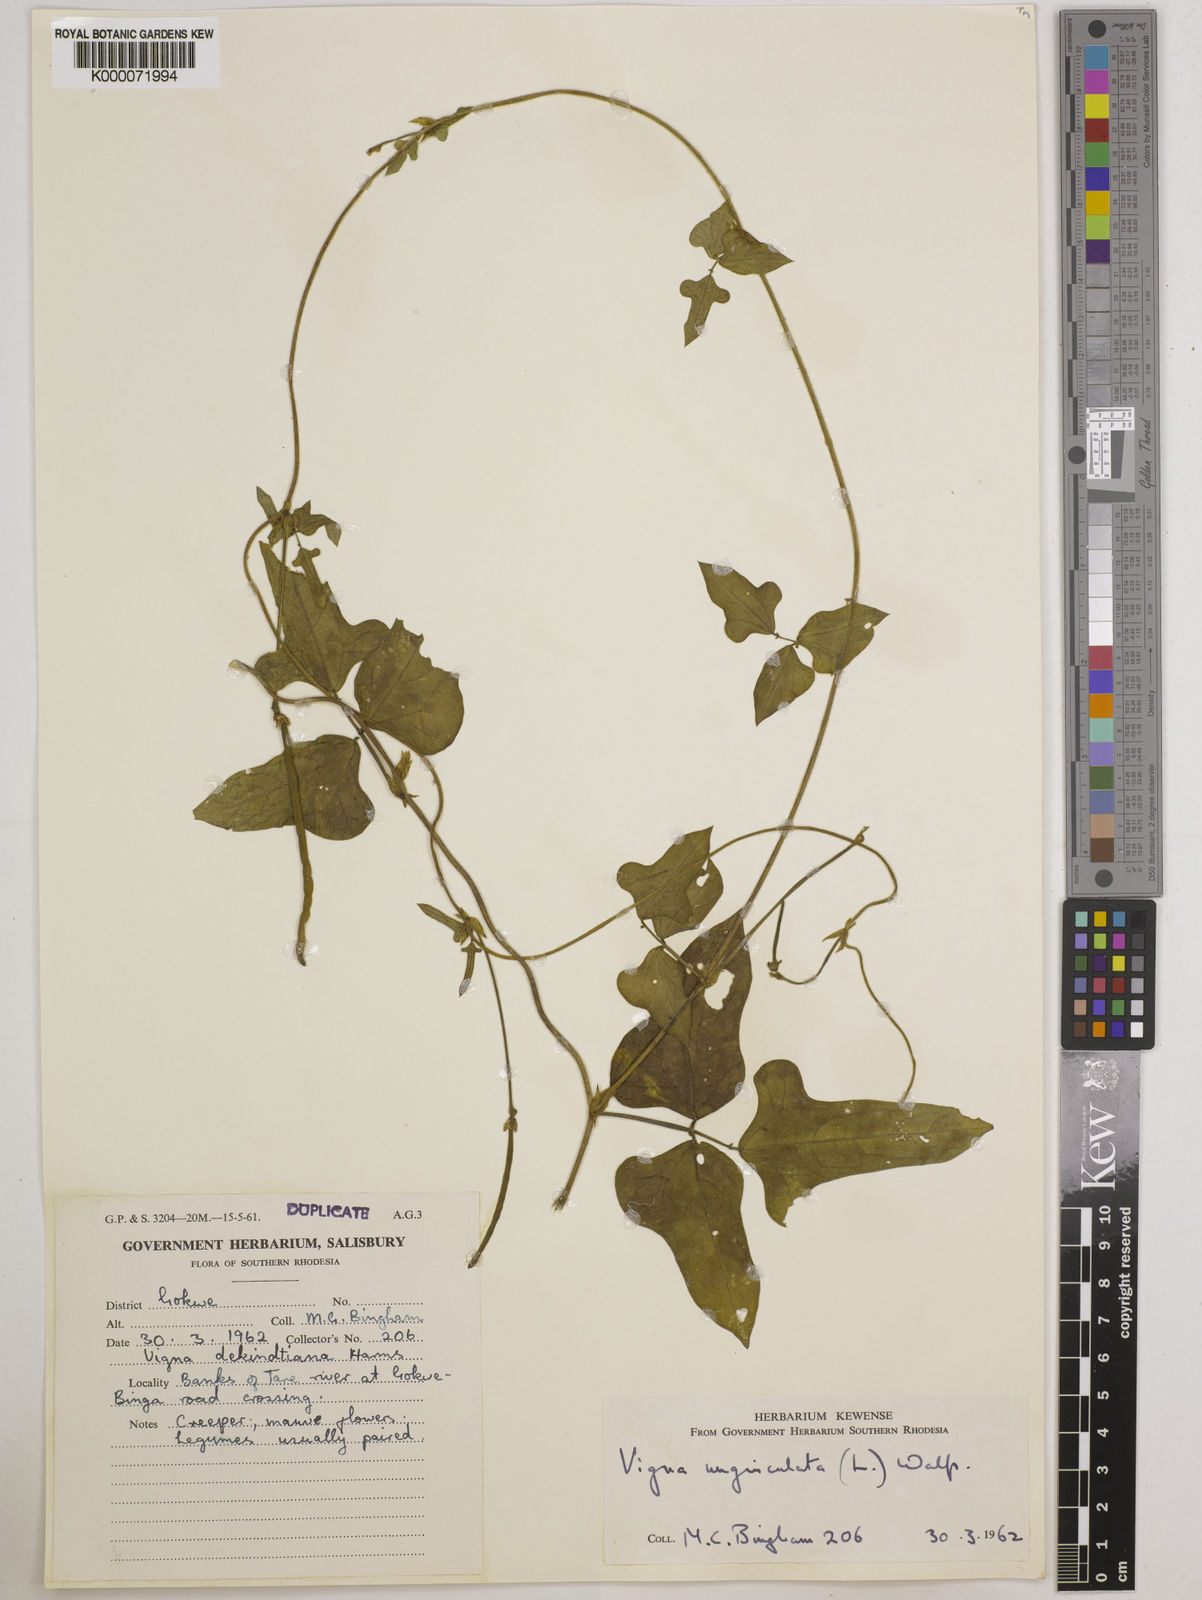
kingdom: Plantae
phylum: Tracheophyta
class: Magnoliopsida
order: Fabales
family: Fabaceae
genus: Vigna
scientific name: Vigna unguiculata
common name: Cowpea
